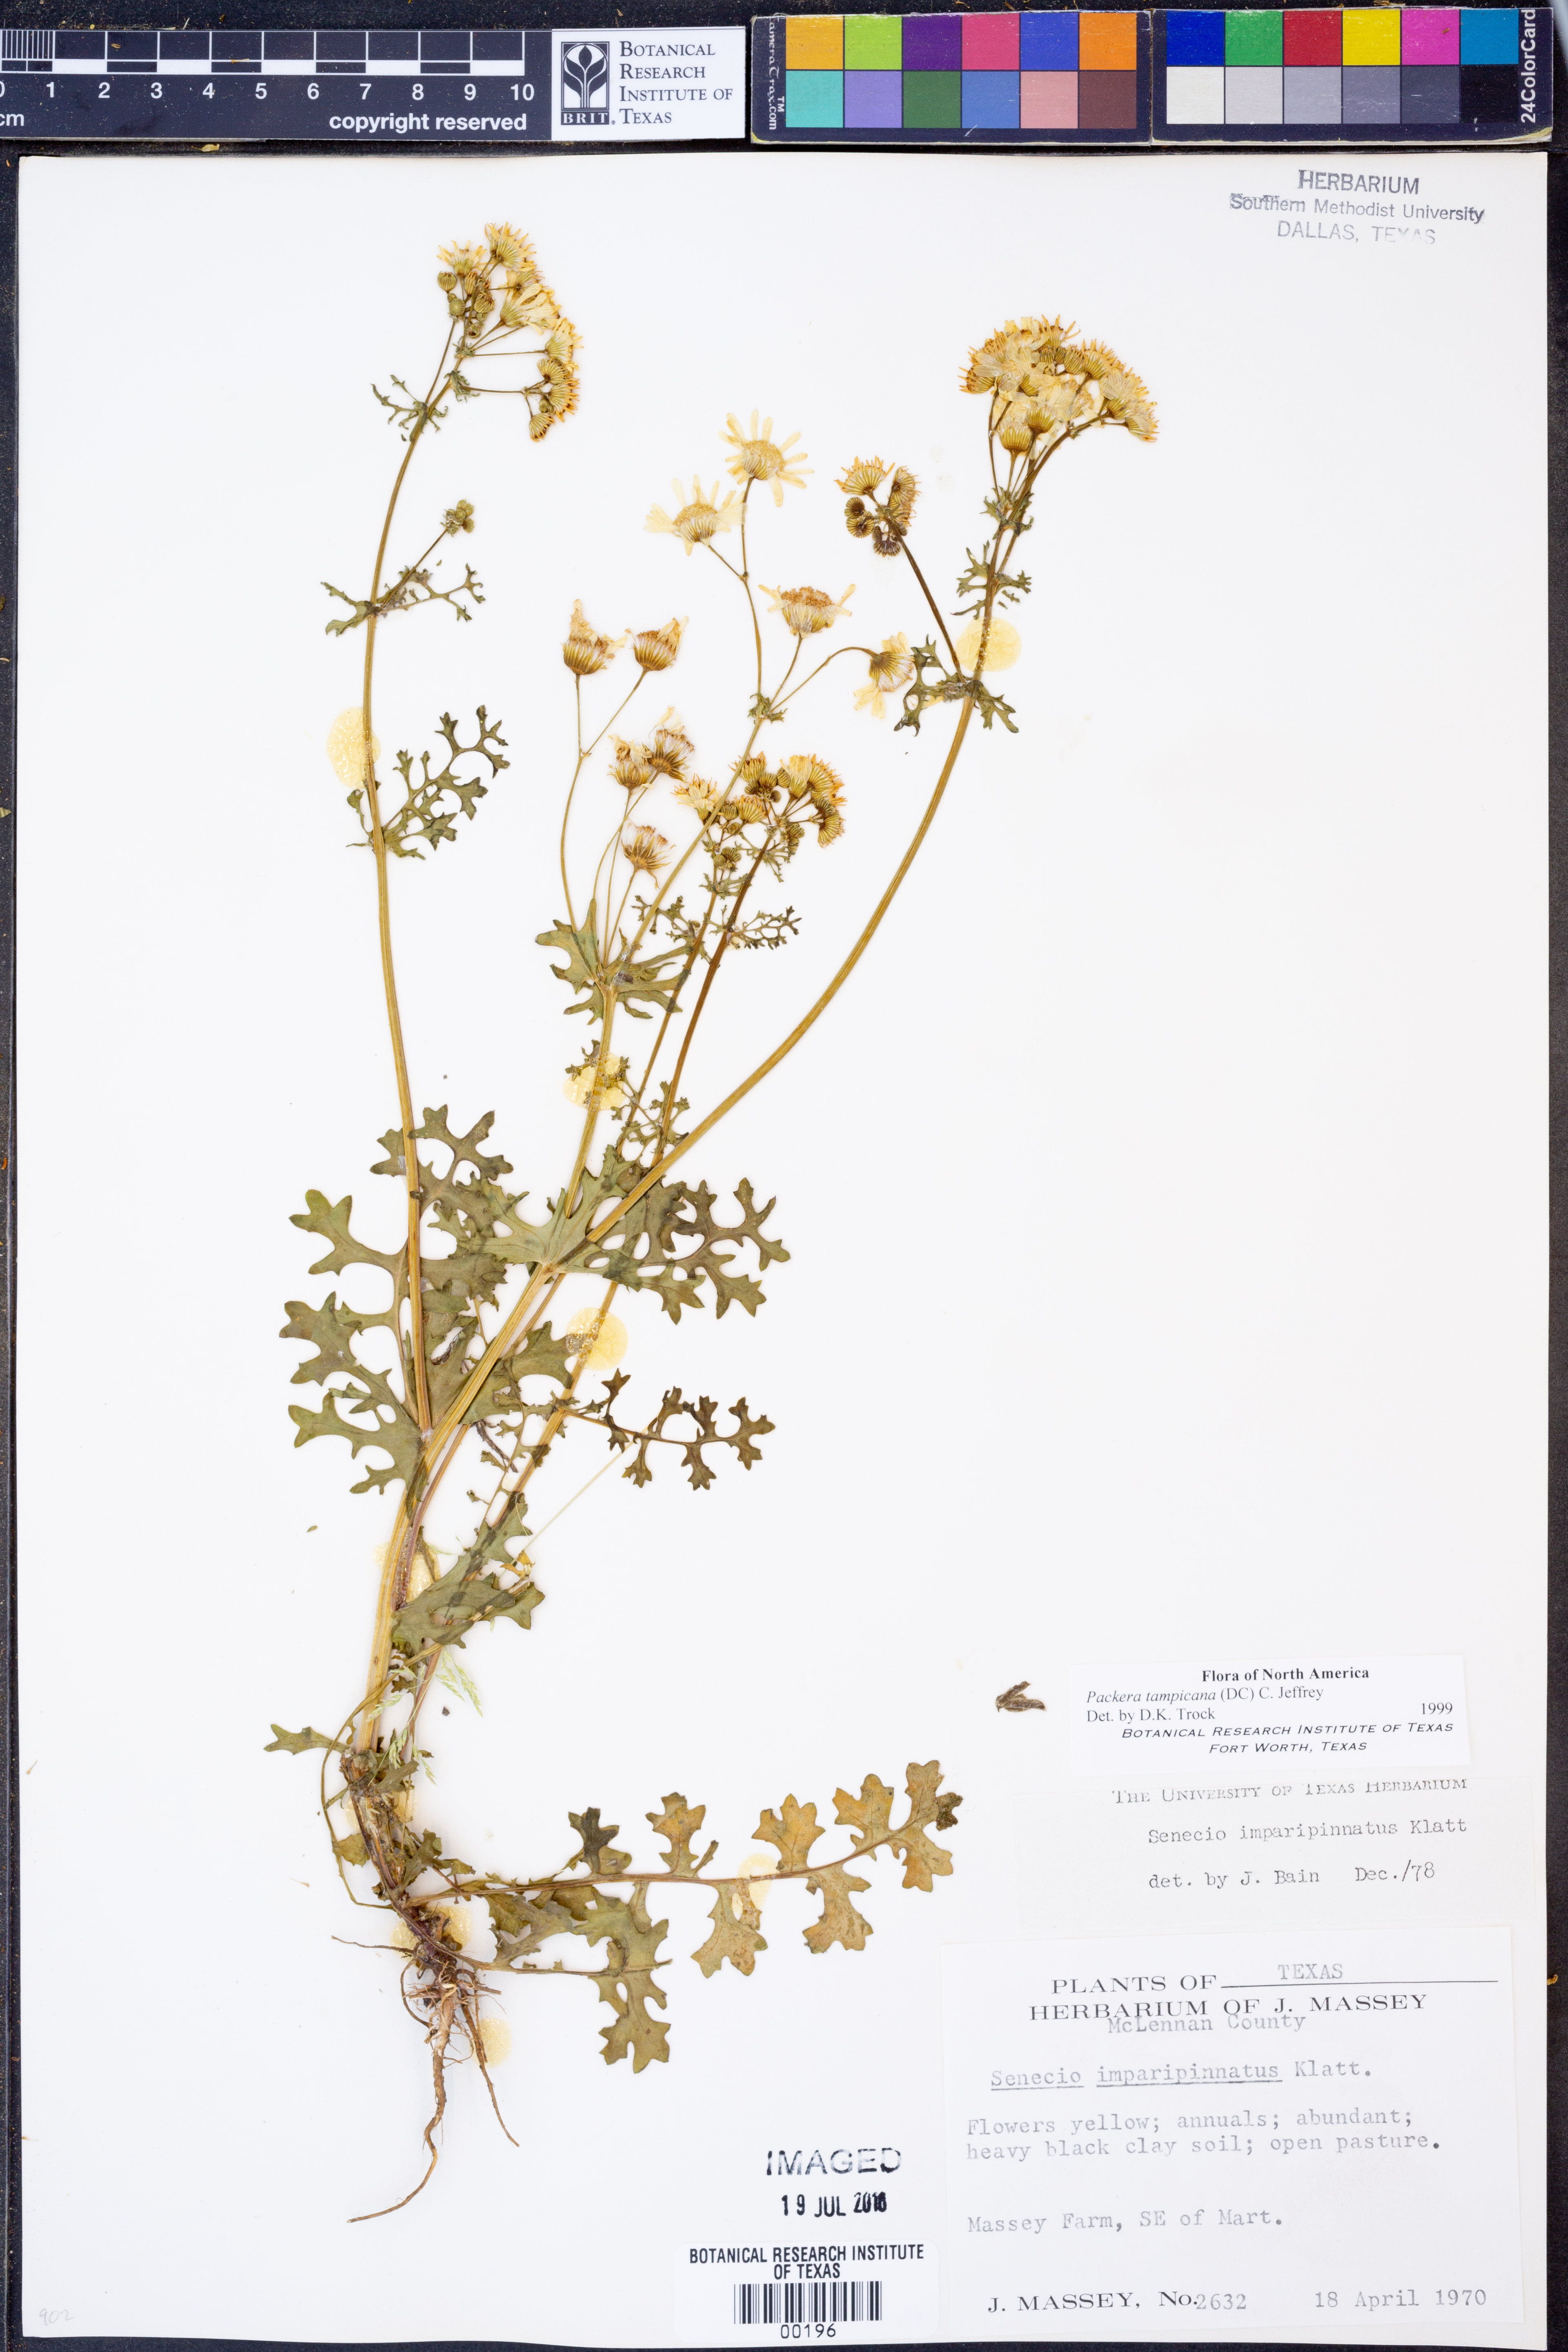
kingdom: Plantae
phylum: Tracheophyta
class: Magnoliopsida
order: Asterales
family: Asteraceae
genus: Packera
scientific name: Packera tampicana
